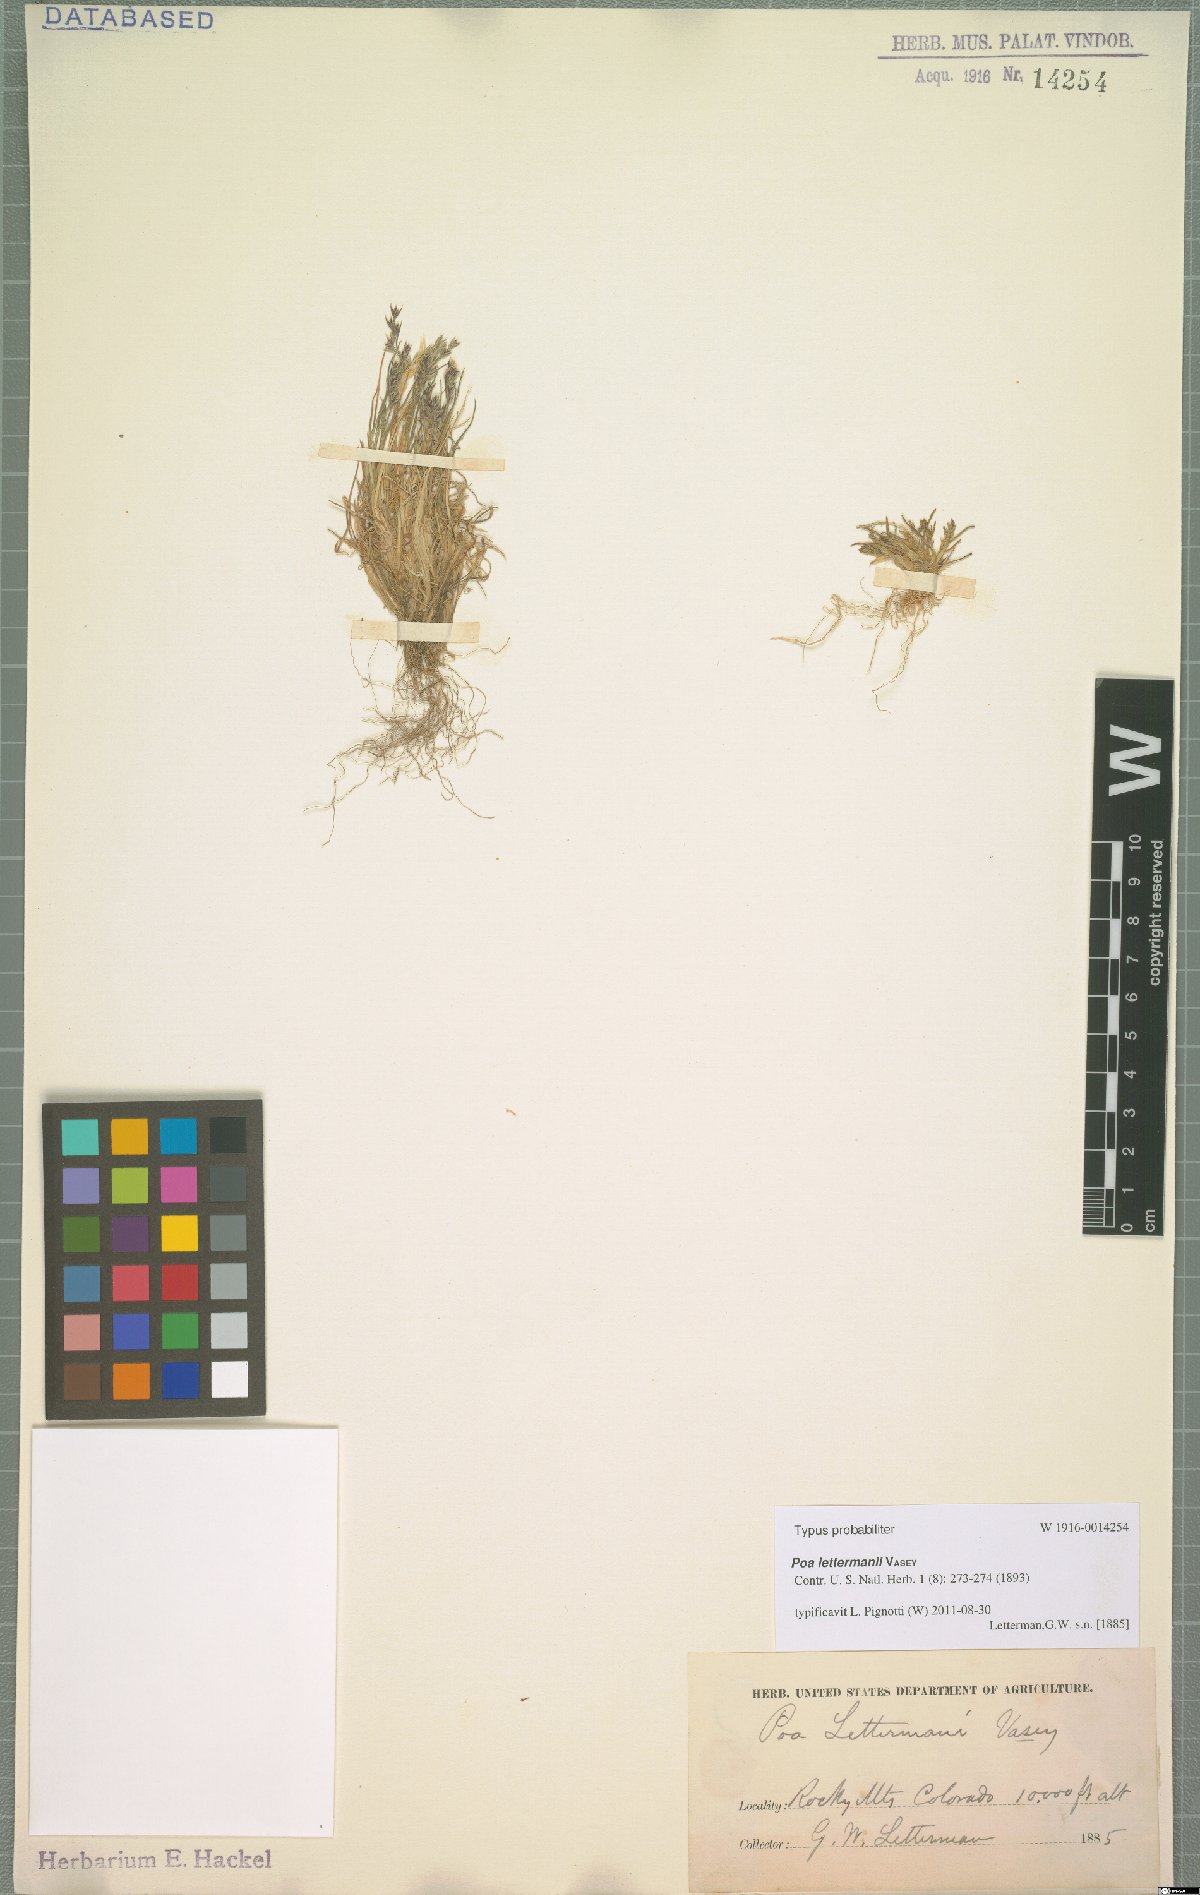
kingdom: Plantae
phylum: Tracheophyta
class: Liliopsida
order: Poales
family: Poaceae
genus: Poa
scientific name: Poa lettermanii
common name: Letterman's bluegrass
